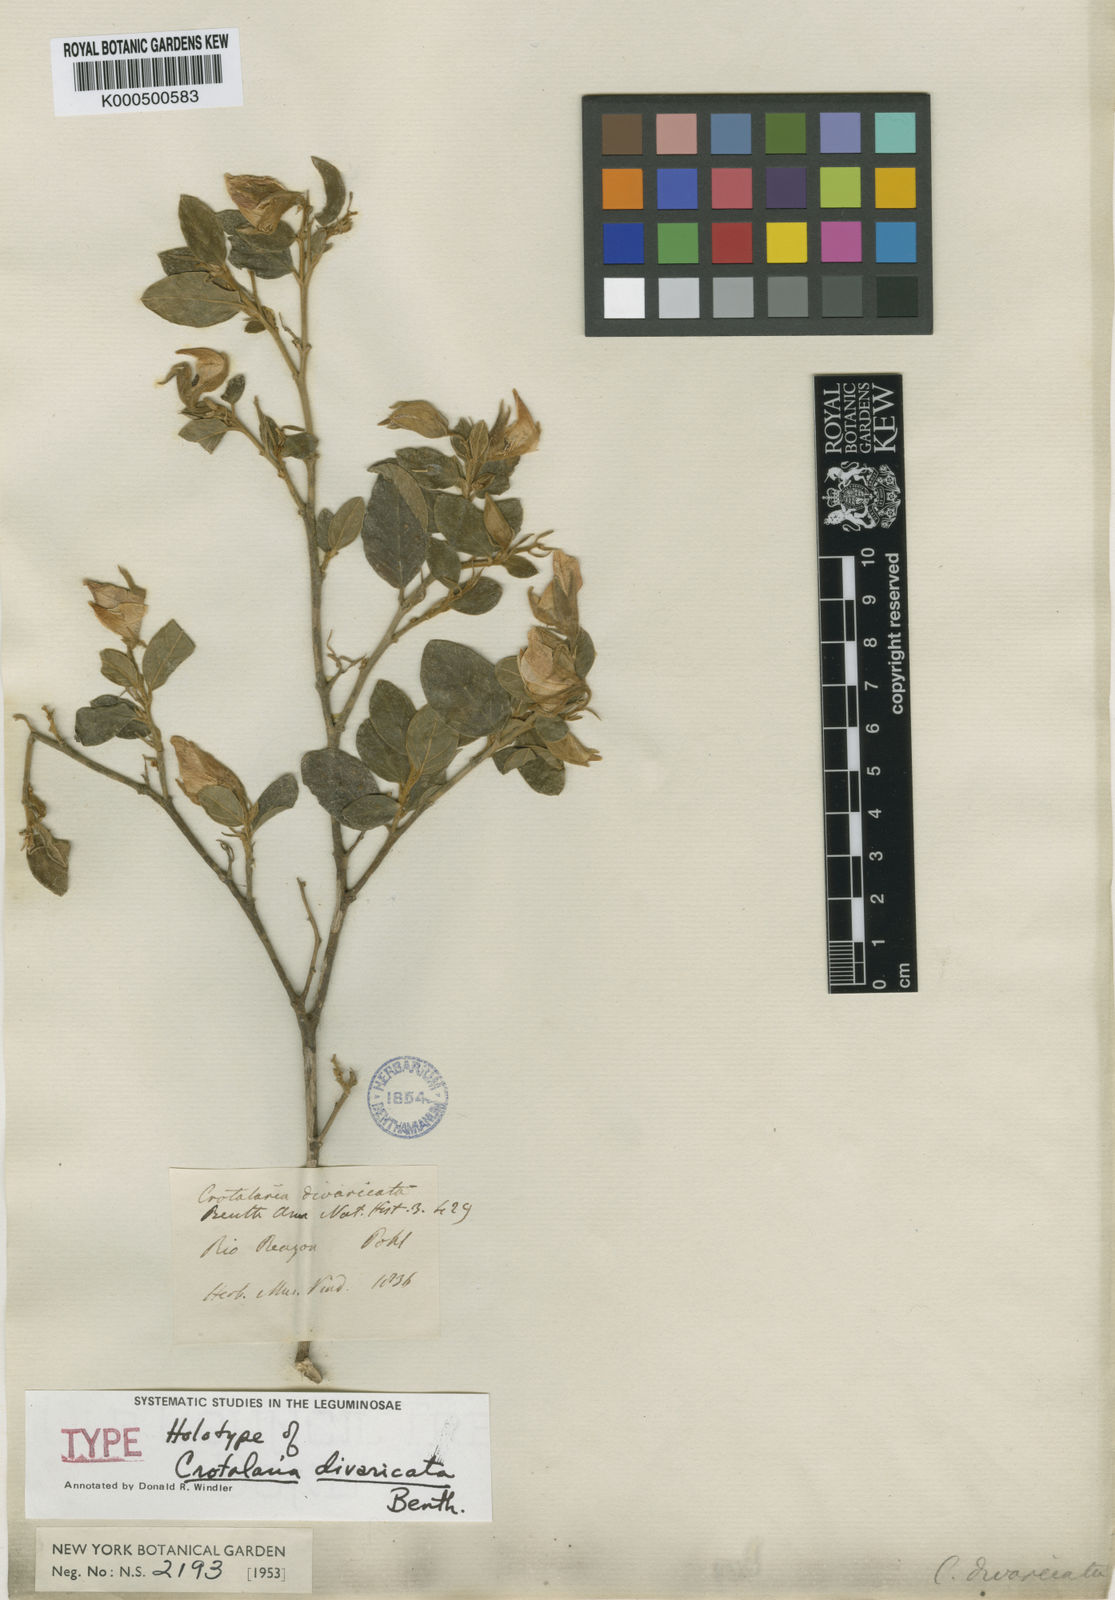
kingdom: Plantae
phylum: Tracheophyta
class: Magnoliopsida
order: Fabales
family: Fabaceae
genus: Crotalaria
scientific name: Crotalaria grandiflora
